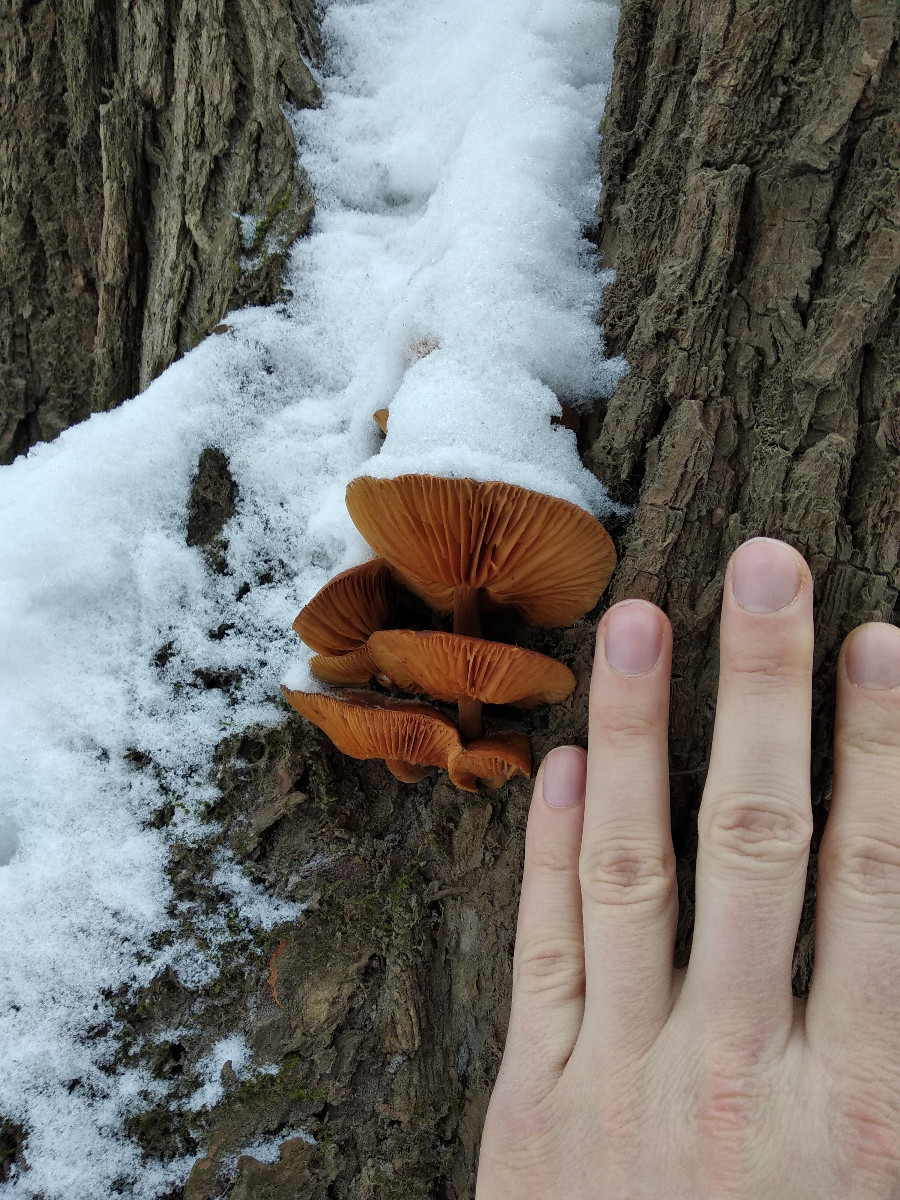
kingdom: Fungi
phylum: Basidiomycota
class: Agaricomycetes
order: Agaricales
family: Physalacriaceae
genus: Flammulina
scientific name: Flammulina
